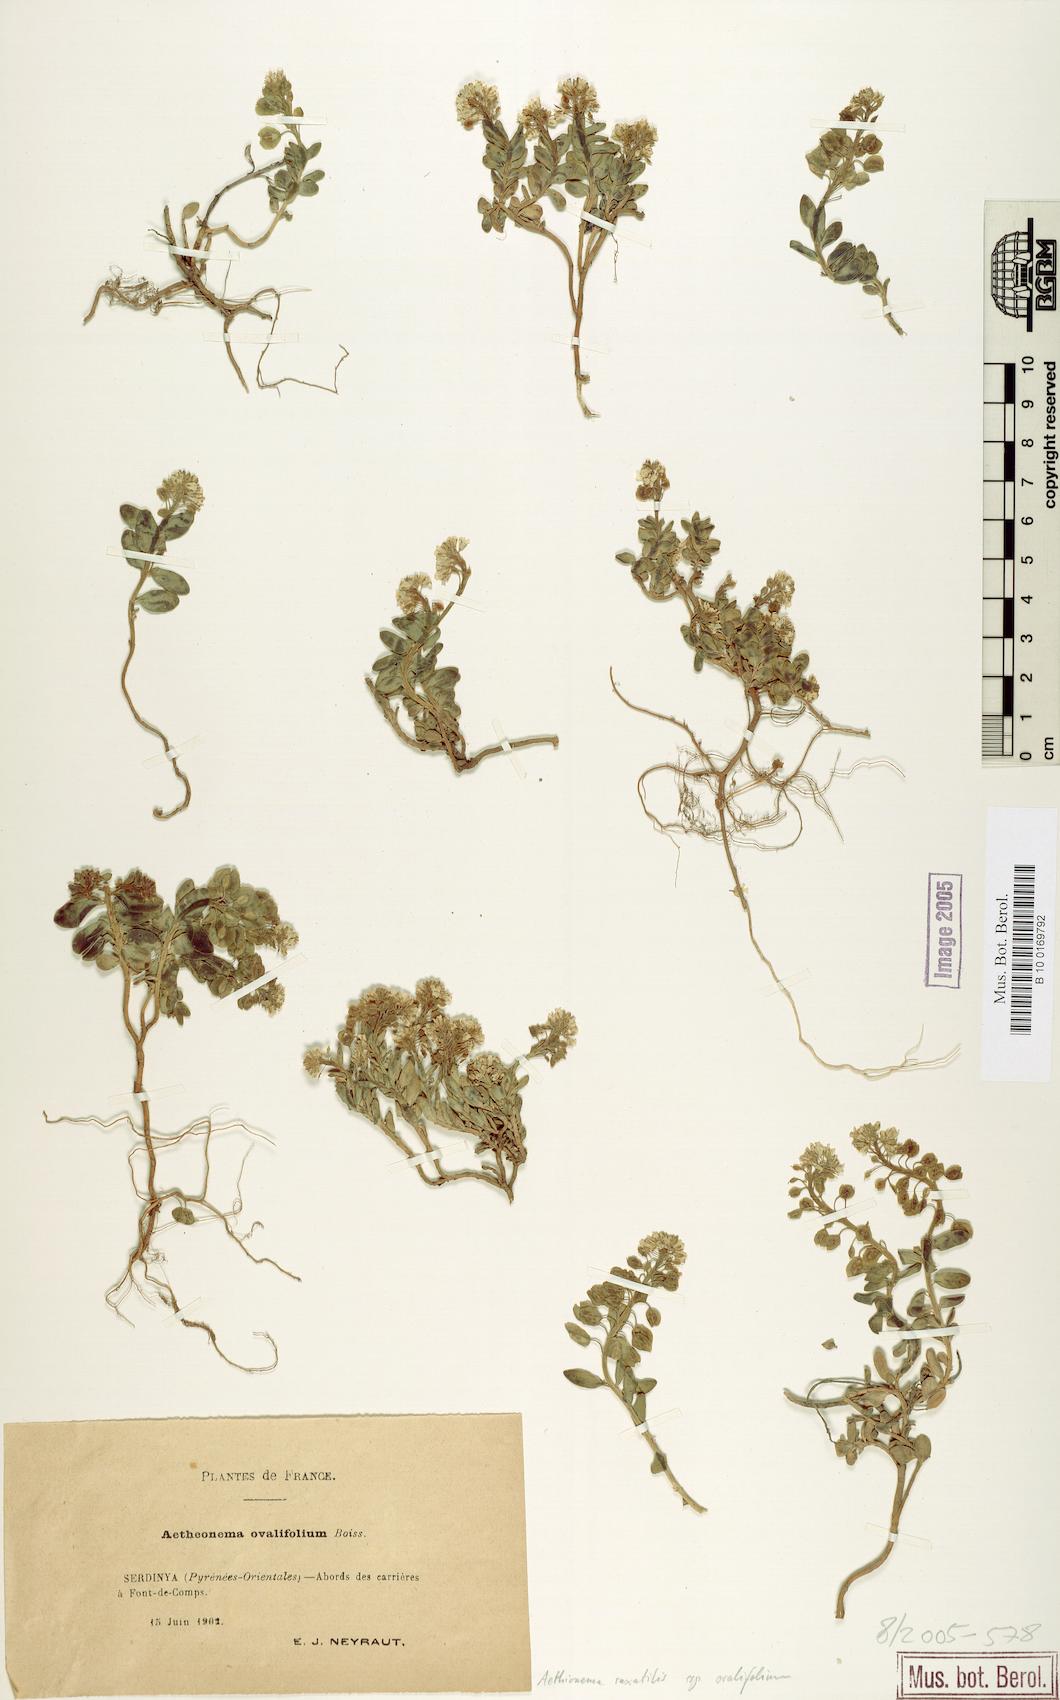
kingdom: Plantae
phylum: Tracheophyta
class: Magnoliopsida
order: Brassicales
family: Brassicaceae
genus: Aethionema
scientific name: Aethionema saxatile
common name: Burnt candytuft
